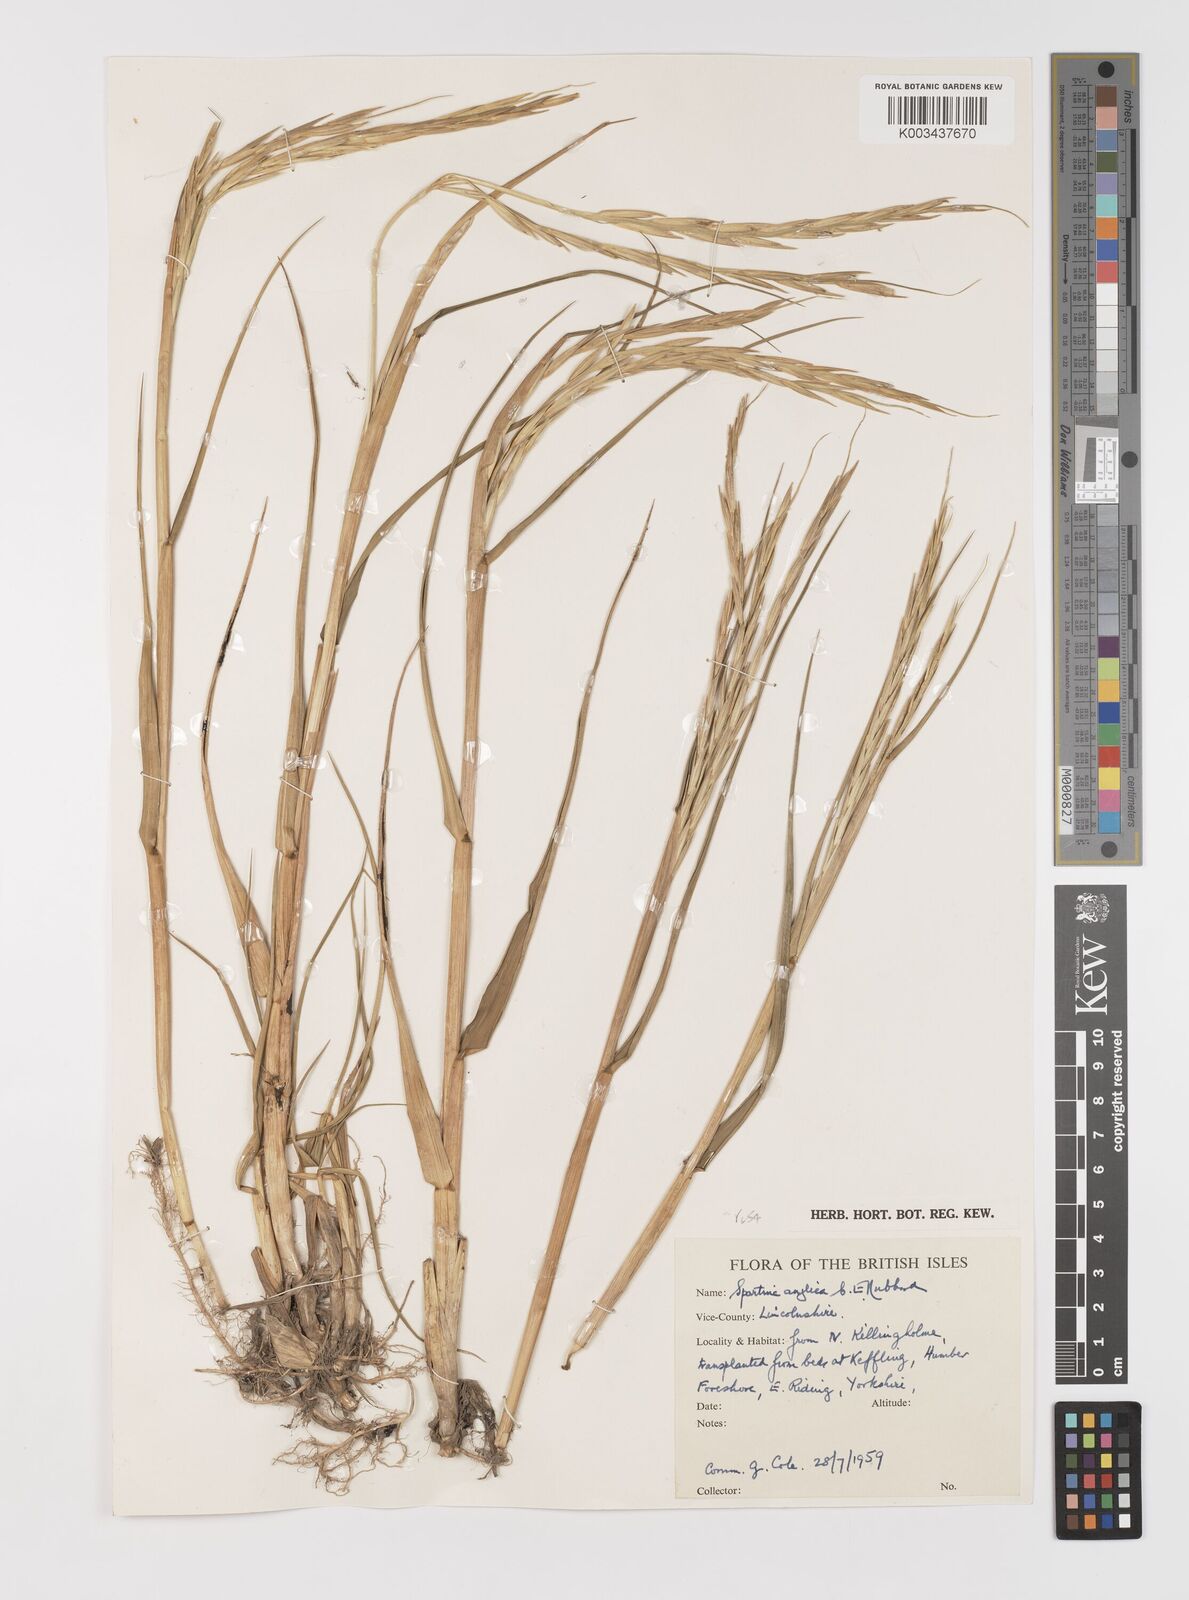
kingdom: Plantae
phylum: Tracheophyta
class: Liliopsida
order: Poales
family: Poaceae
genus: Sporobolus
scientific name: Sporobolus anglicus
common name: English cordgrass
